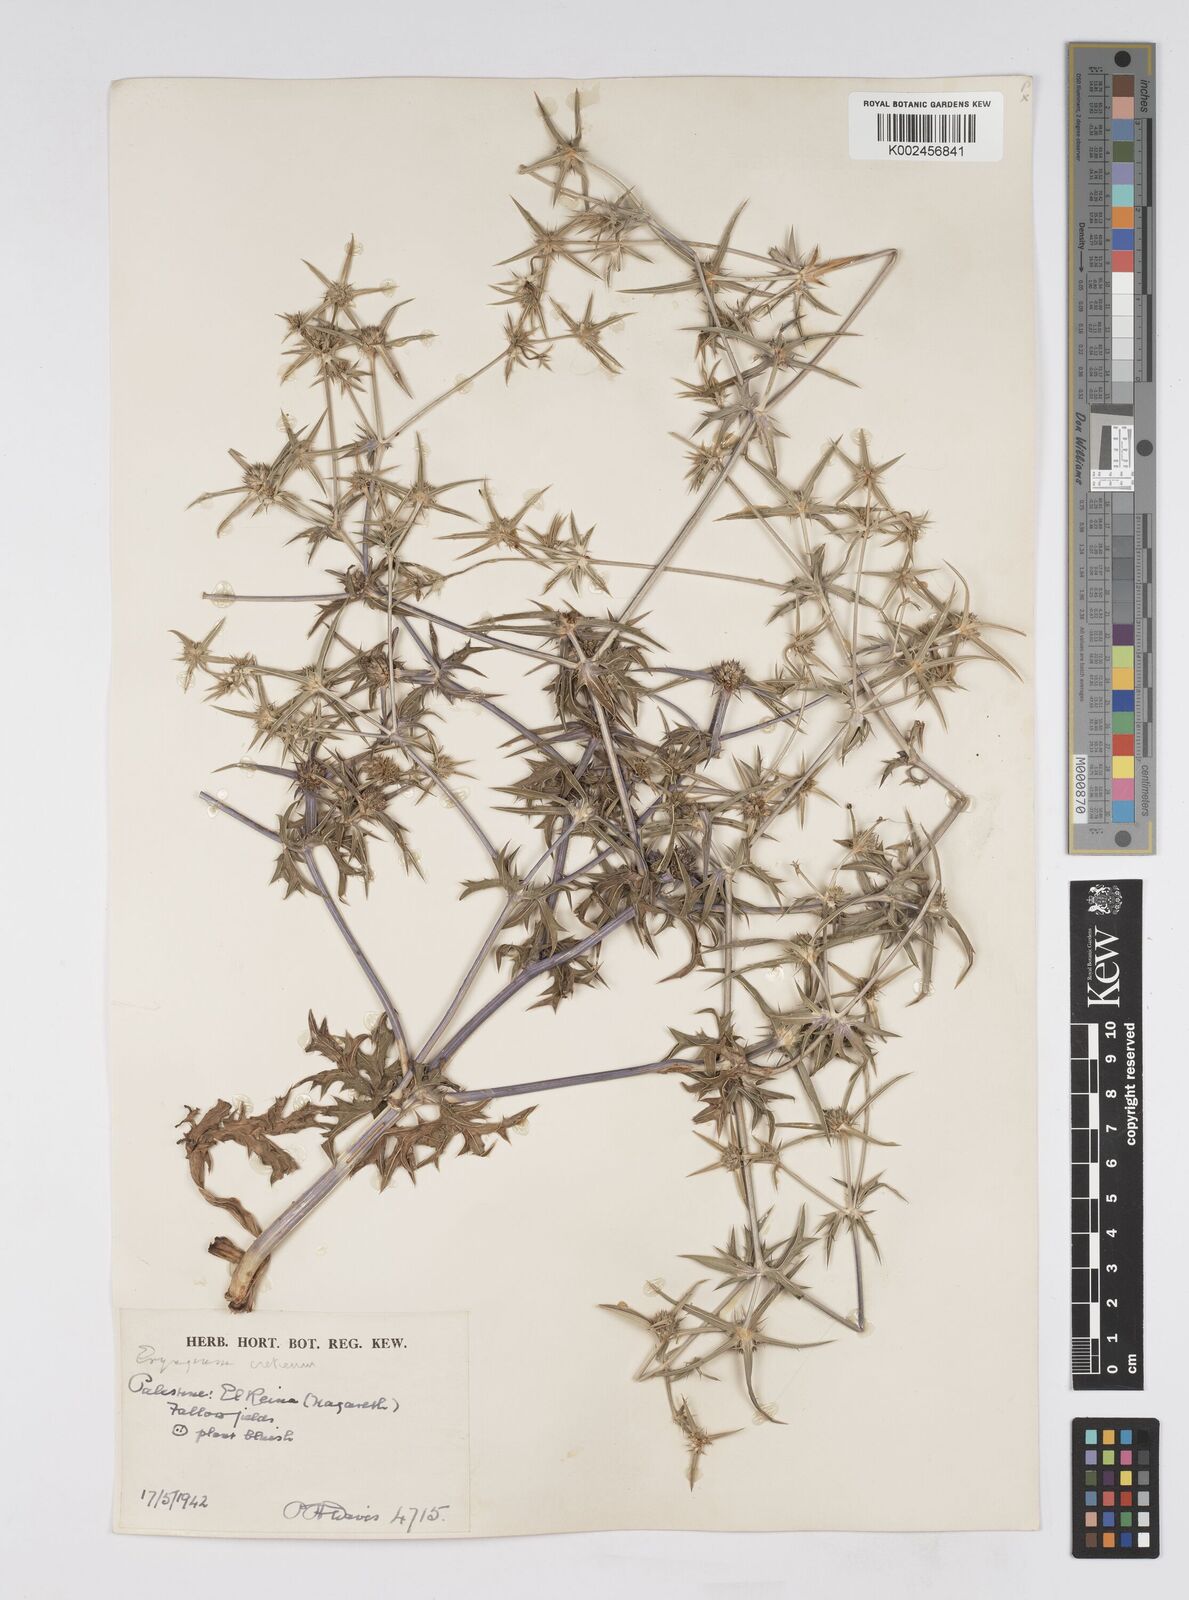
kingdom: Plantae
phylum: Tracheophyta
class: Magnoliopsida
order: Apiales
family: Apiaceae
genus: Eryngium
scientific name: Eryngium creticum
